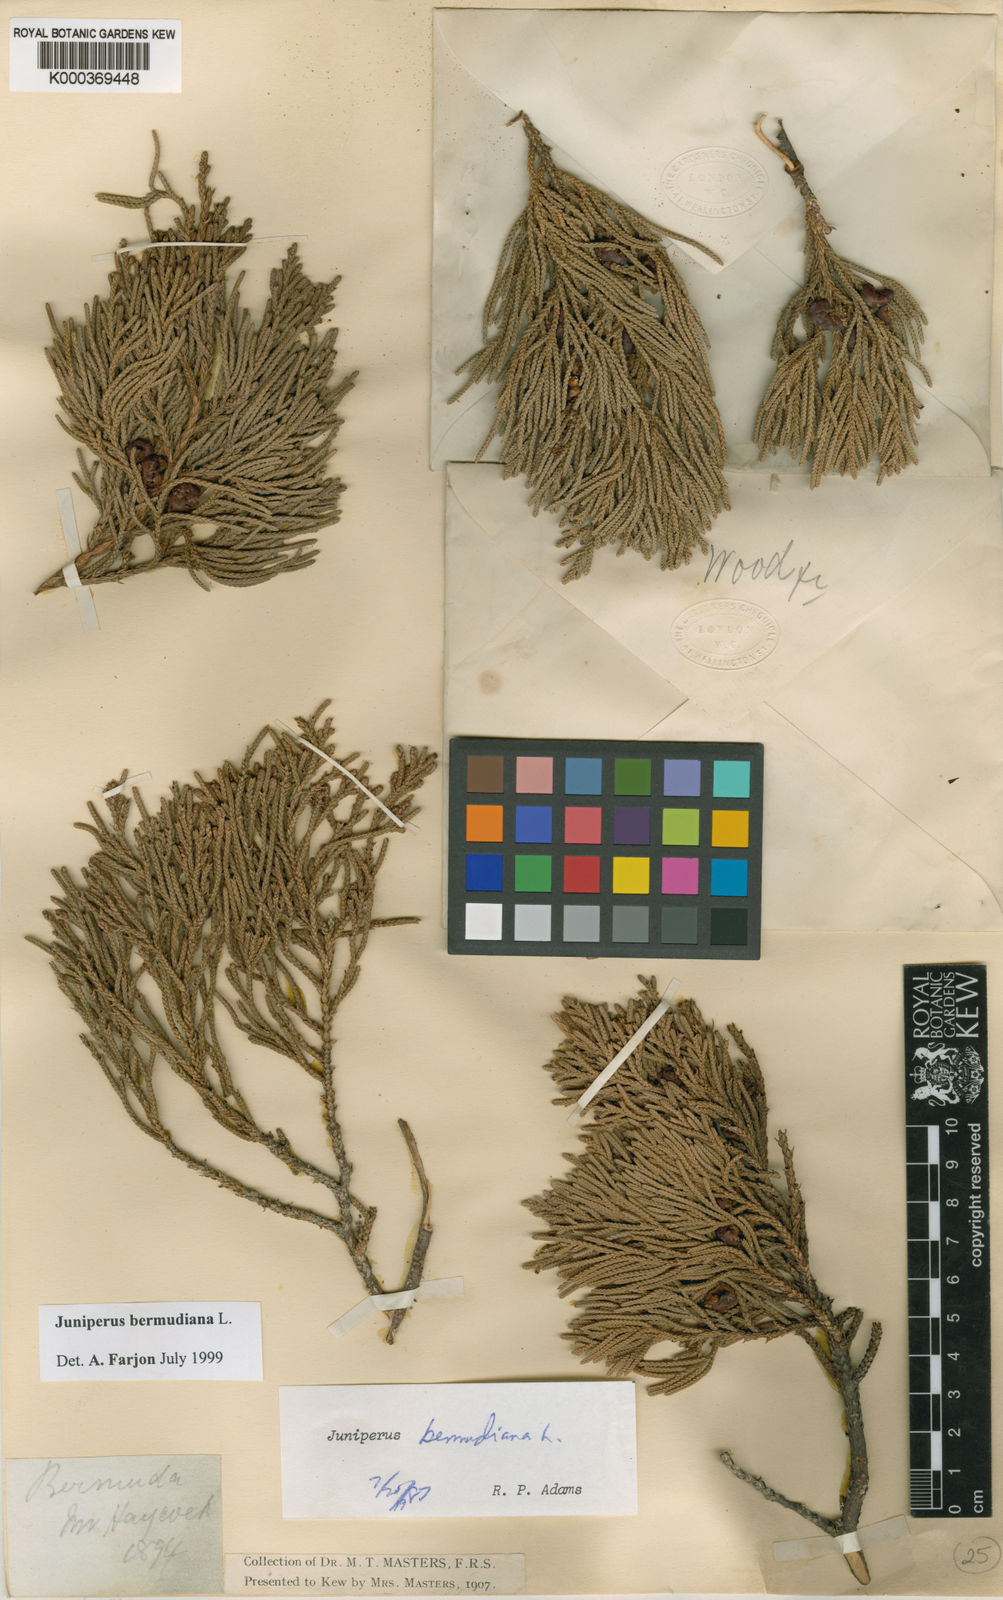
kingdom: Plantae
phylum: Tracheophyta
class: Pinopsida
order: Pinales
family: Cupressaceae
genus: Juniperus
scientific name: Juniperus bermudiana
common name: Bermuda juniper
